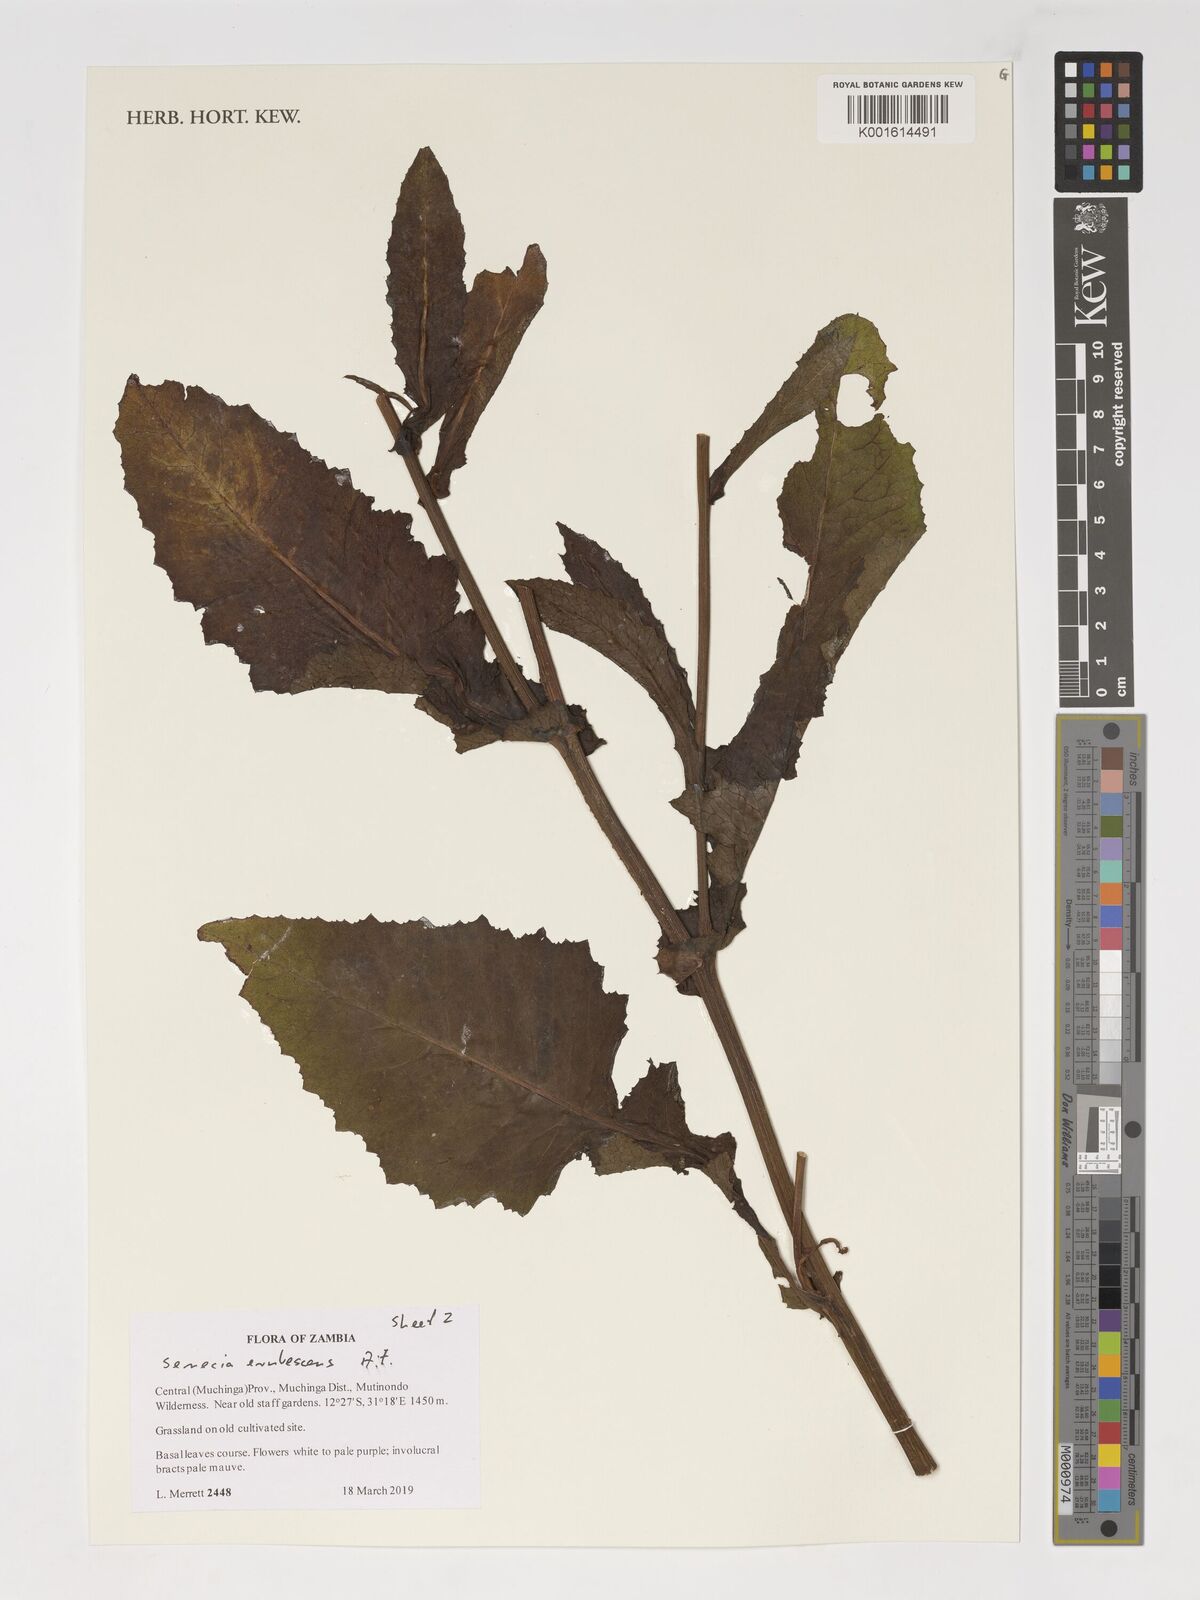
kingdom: Plantae
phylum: Tracheophyta
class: Magnoliopsida
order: Asterales
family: Asteraceae
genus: Senecio
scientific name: Senecio erubescens
